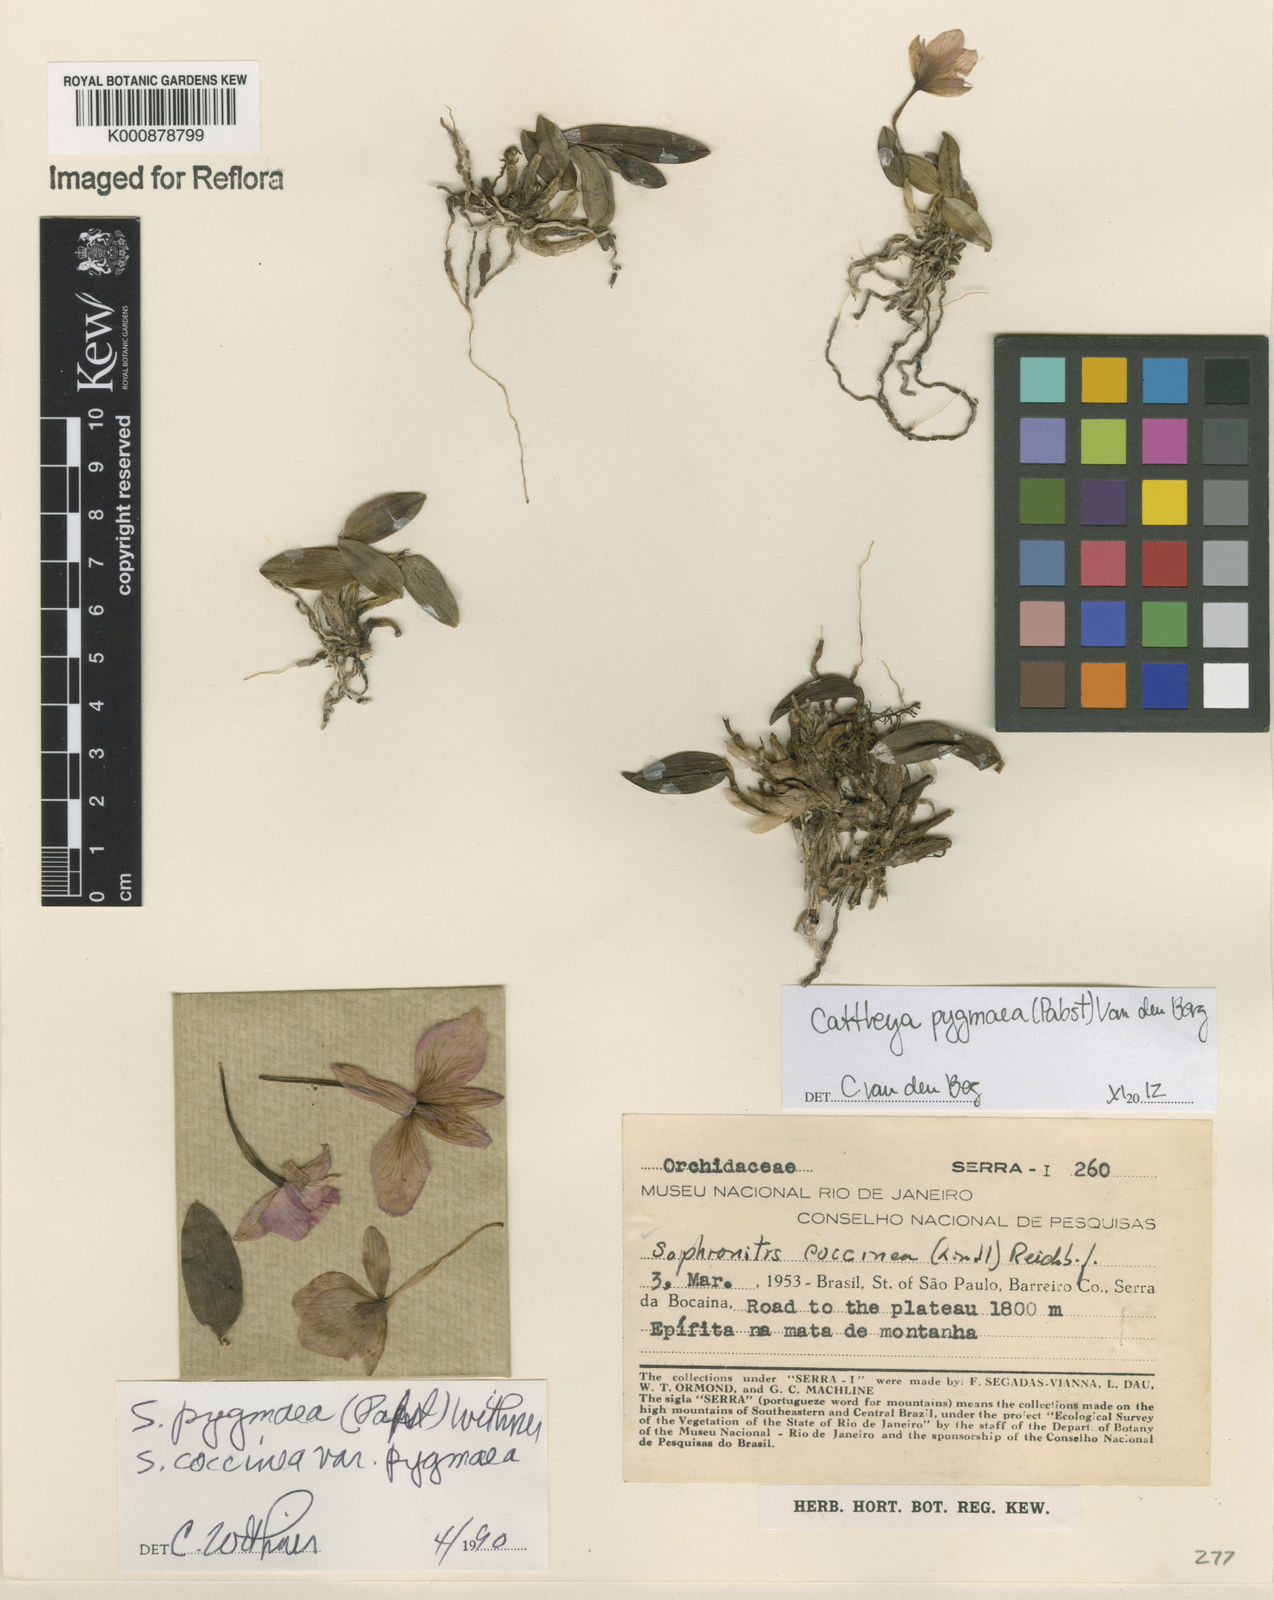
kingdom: Plantae
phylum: Tracheophyta
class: Liliopsida
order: Asparagales
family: Orchidaceae
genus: Cattleya
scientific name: Cattleya pygmaea
